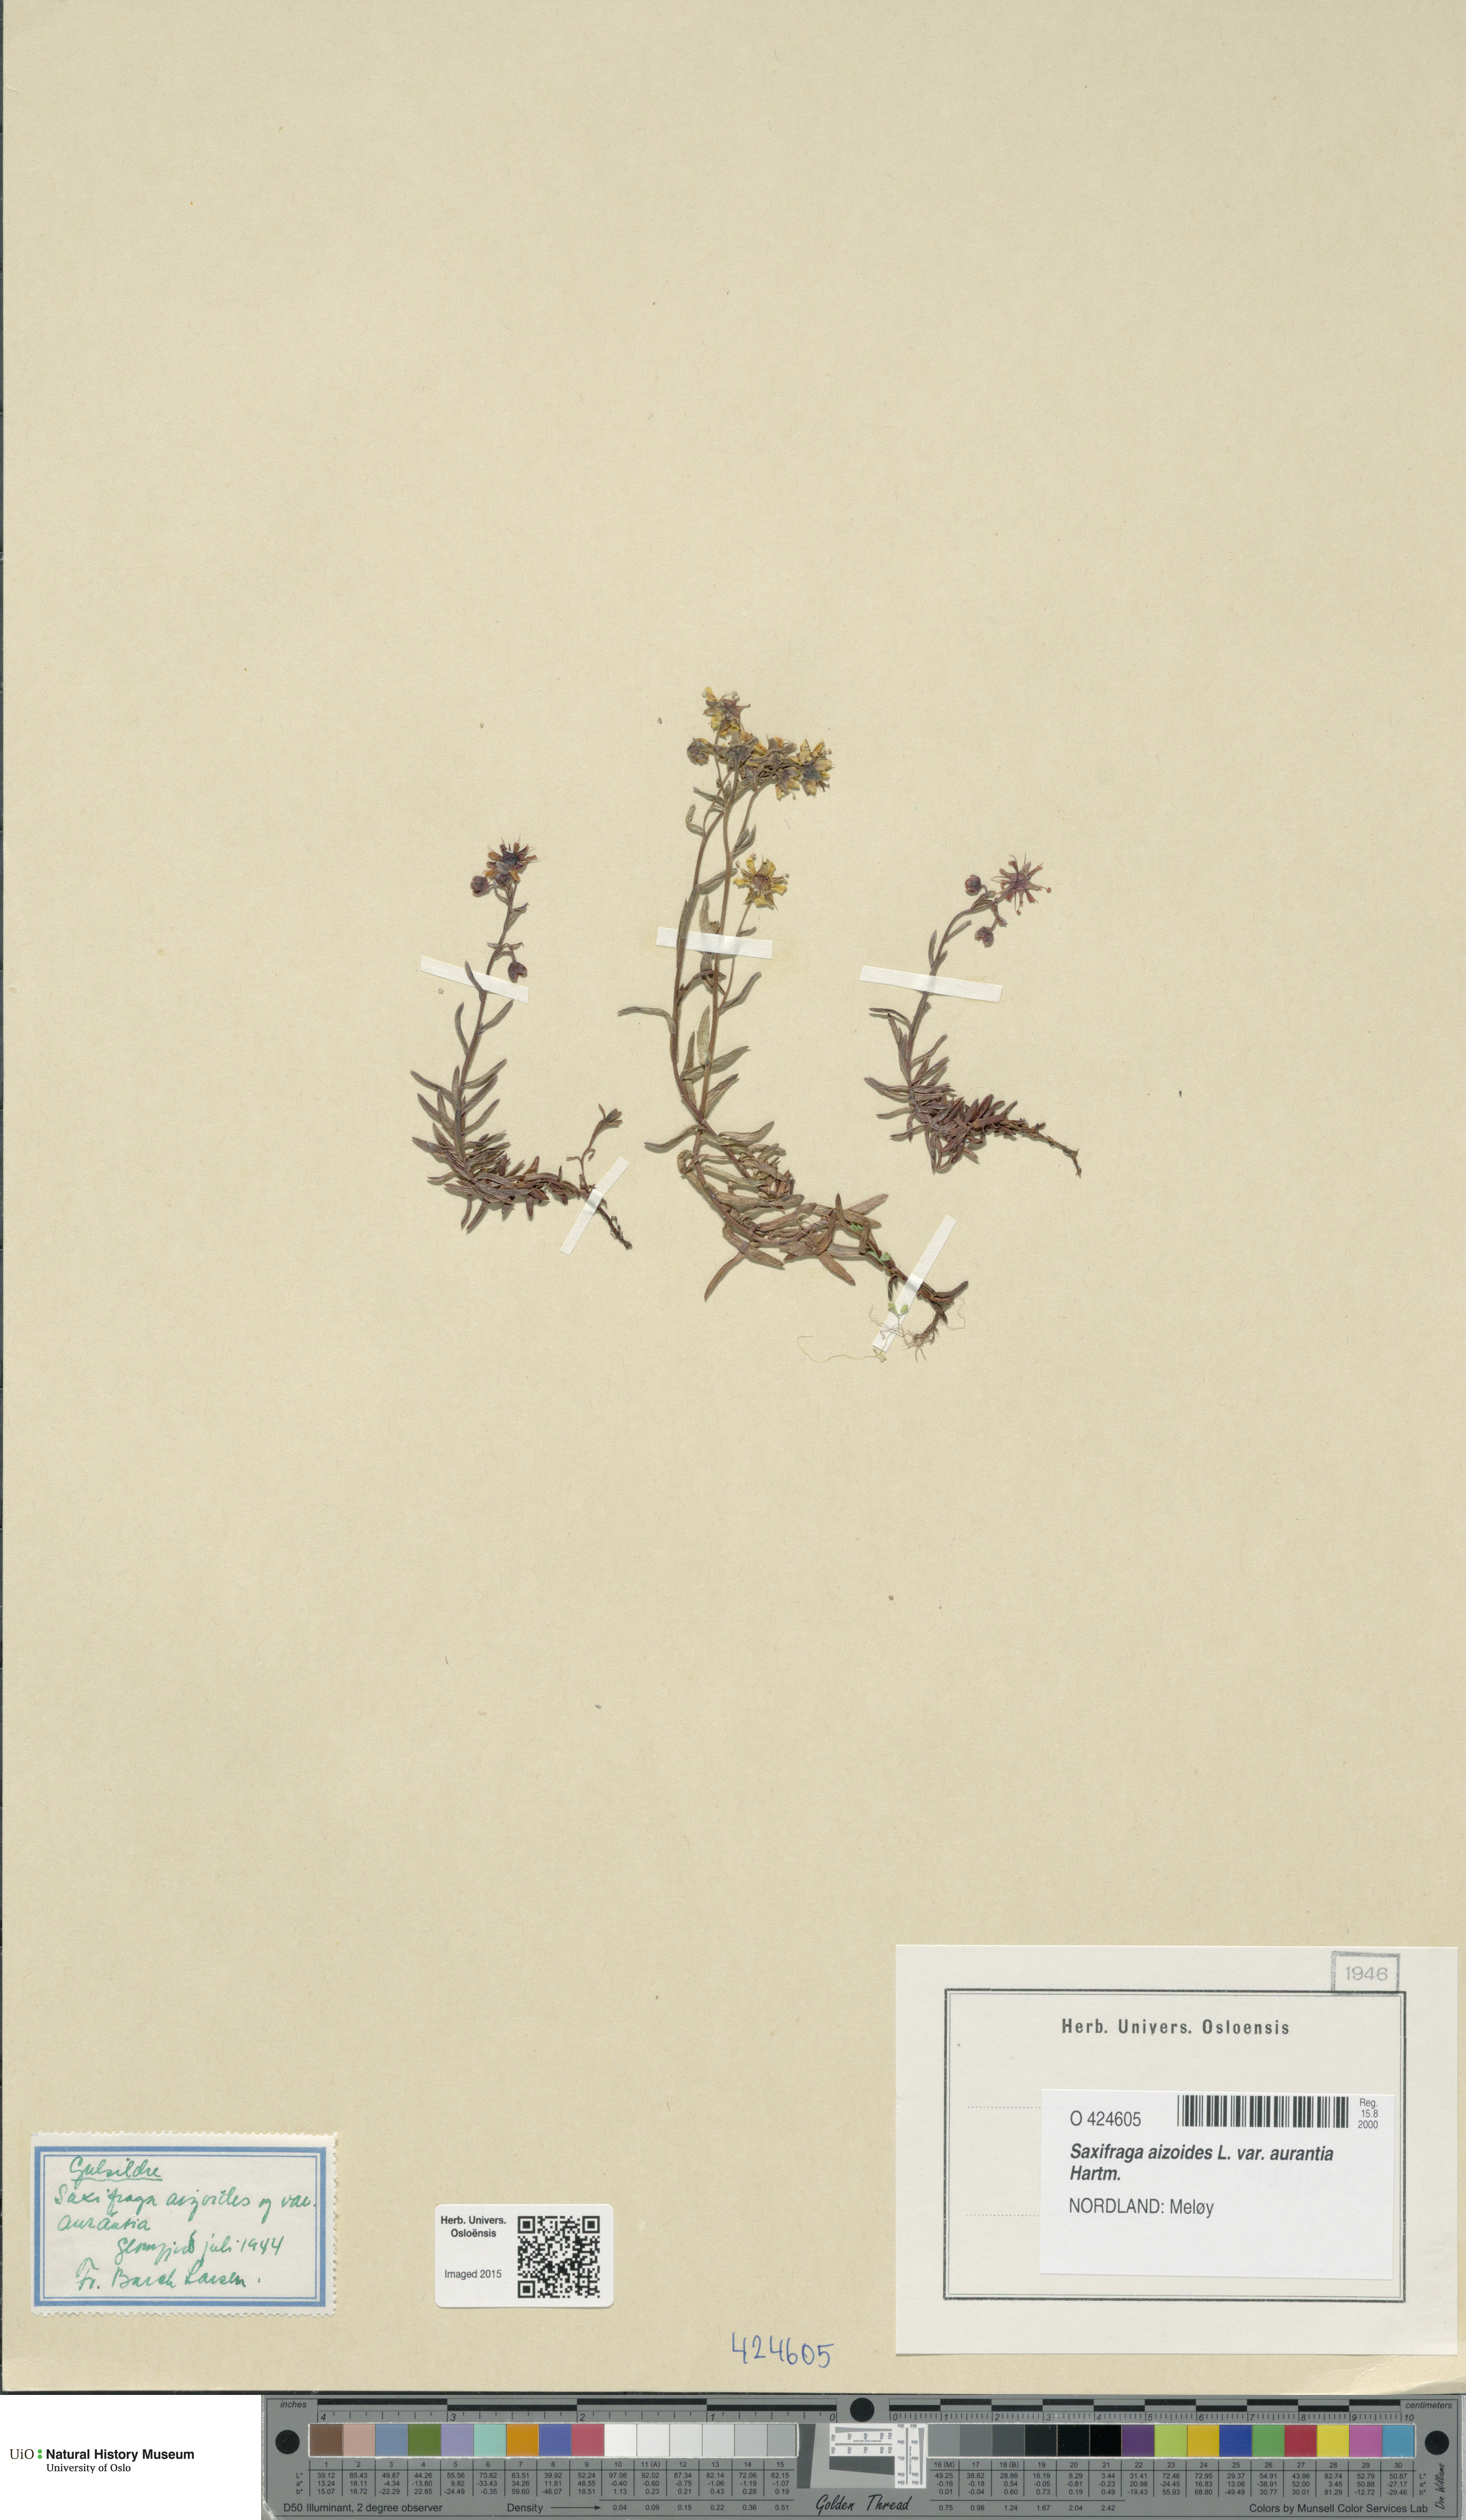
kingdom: Plantae
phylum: Tracheophyta
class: Magnoliopsida
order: Saxifragales
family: Saxifragaceae
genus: Saxifraga
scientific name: Saxifraga aizoides
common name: Yellow mountain saxifrage
